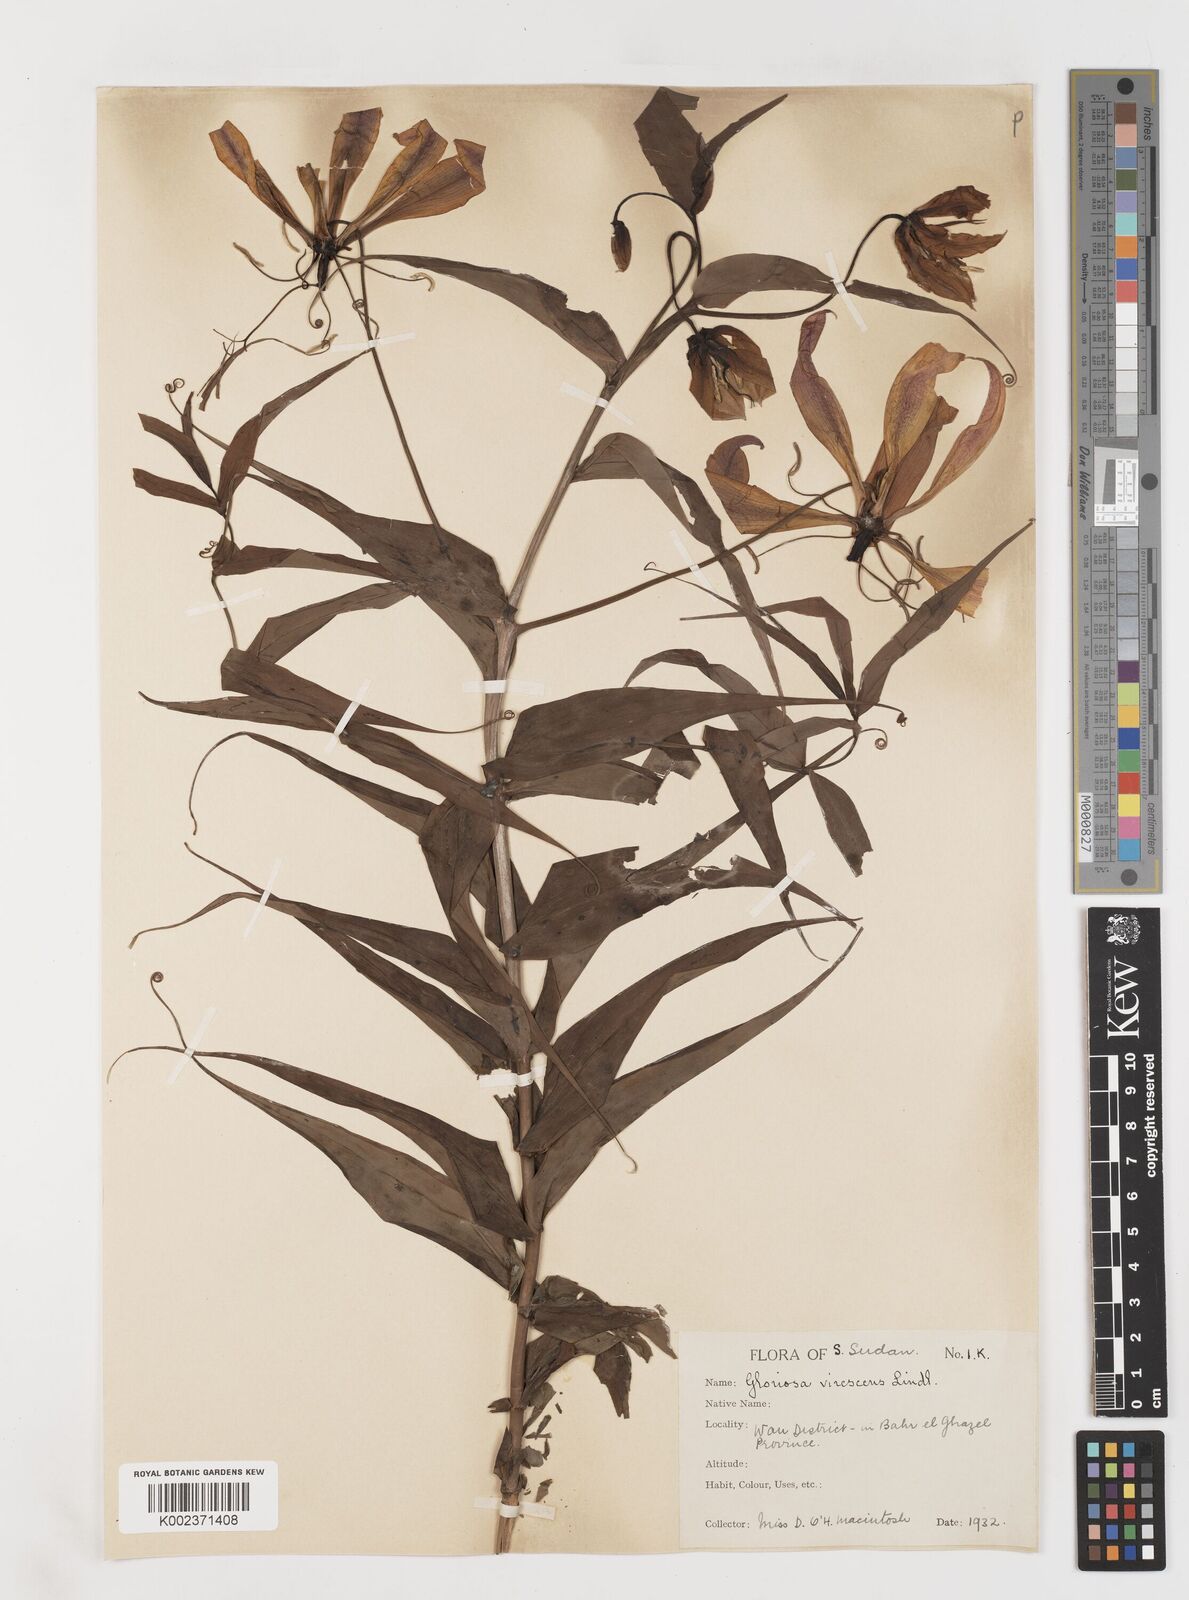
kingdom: Plantae
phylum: Tracheophyta
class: Liliopsida
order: Liliales
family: Colchicaceae
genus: Gloriosa
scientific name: Gloriosa simplex
